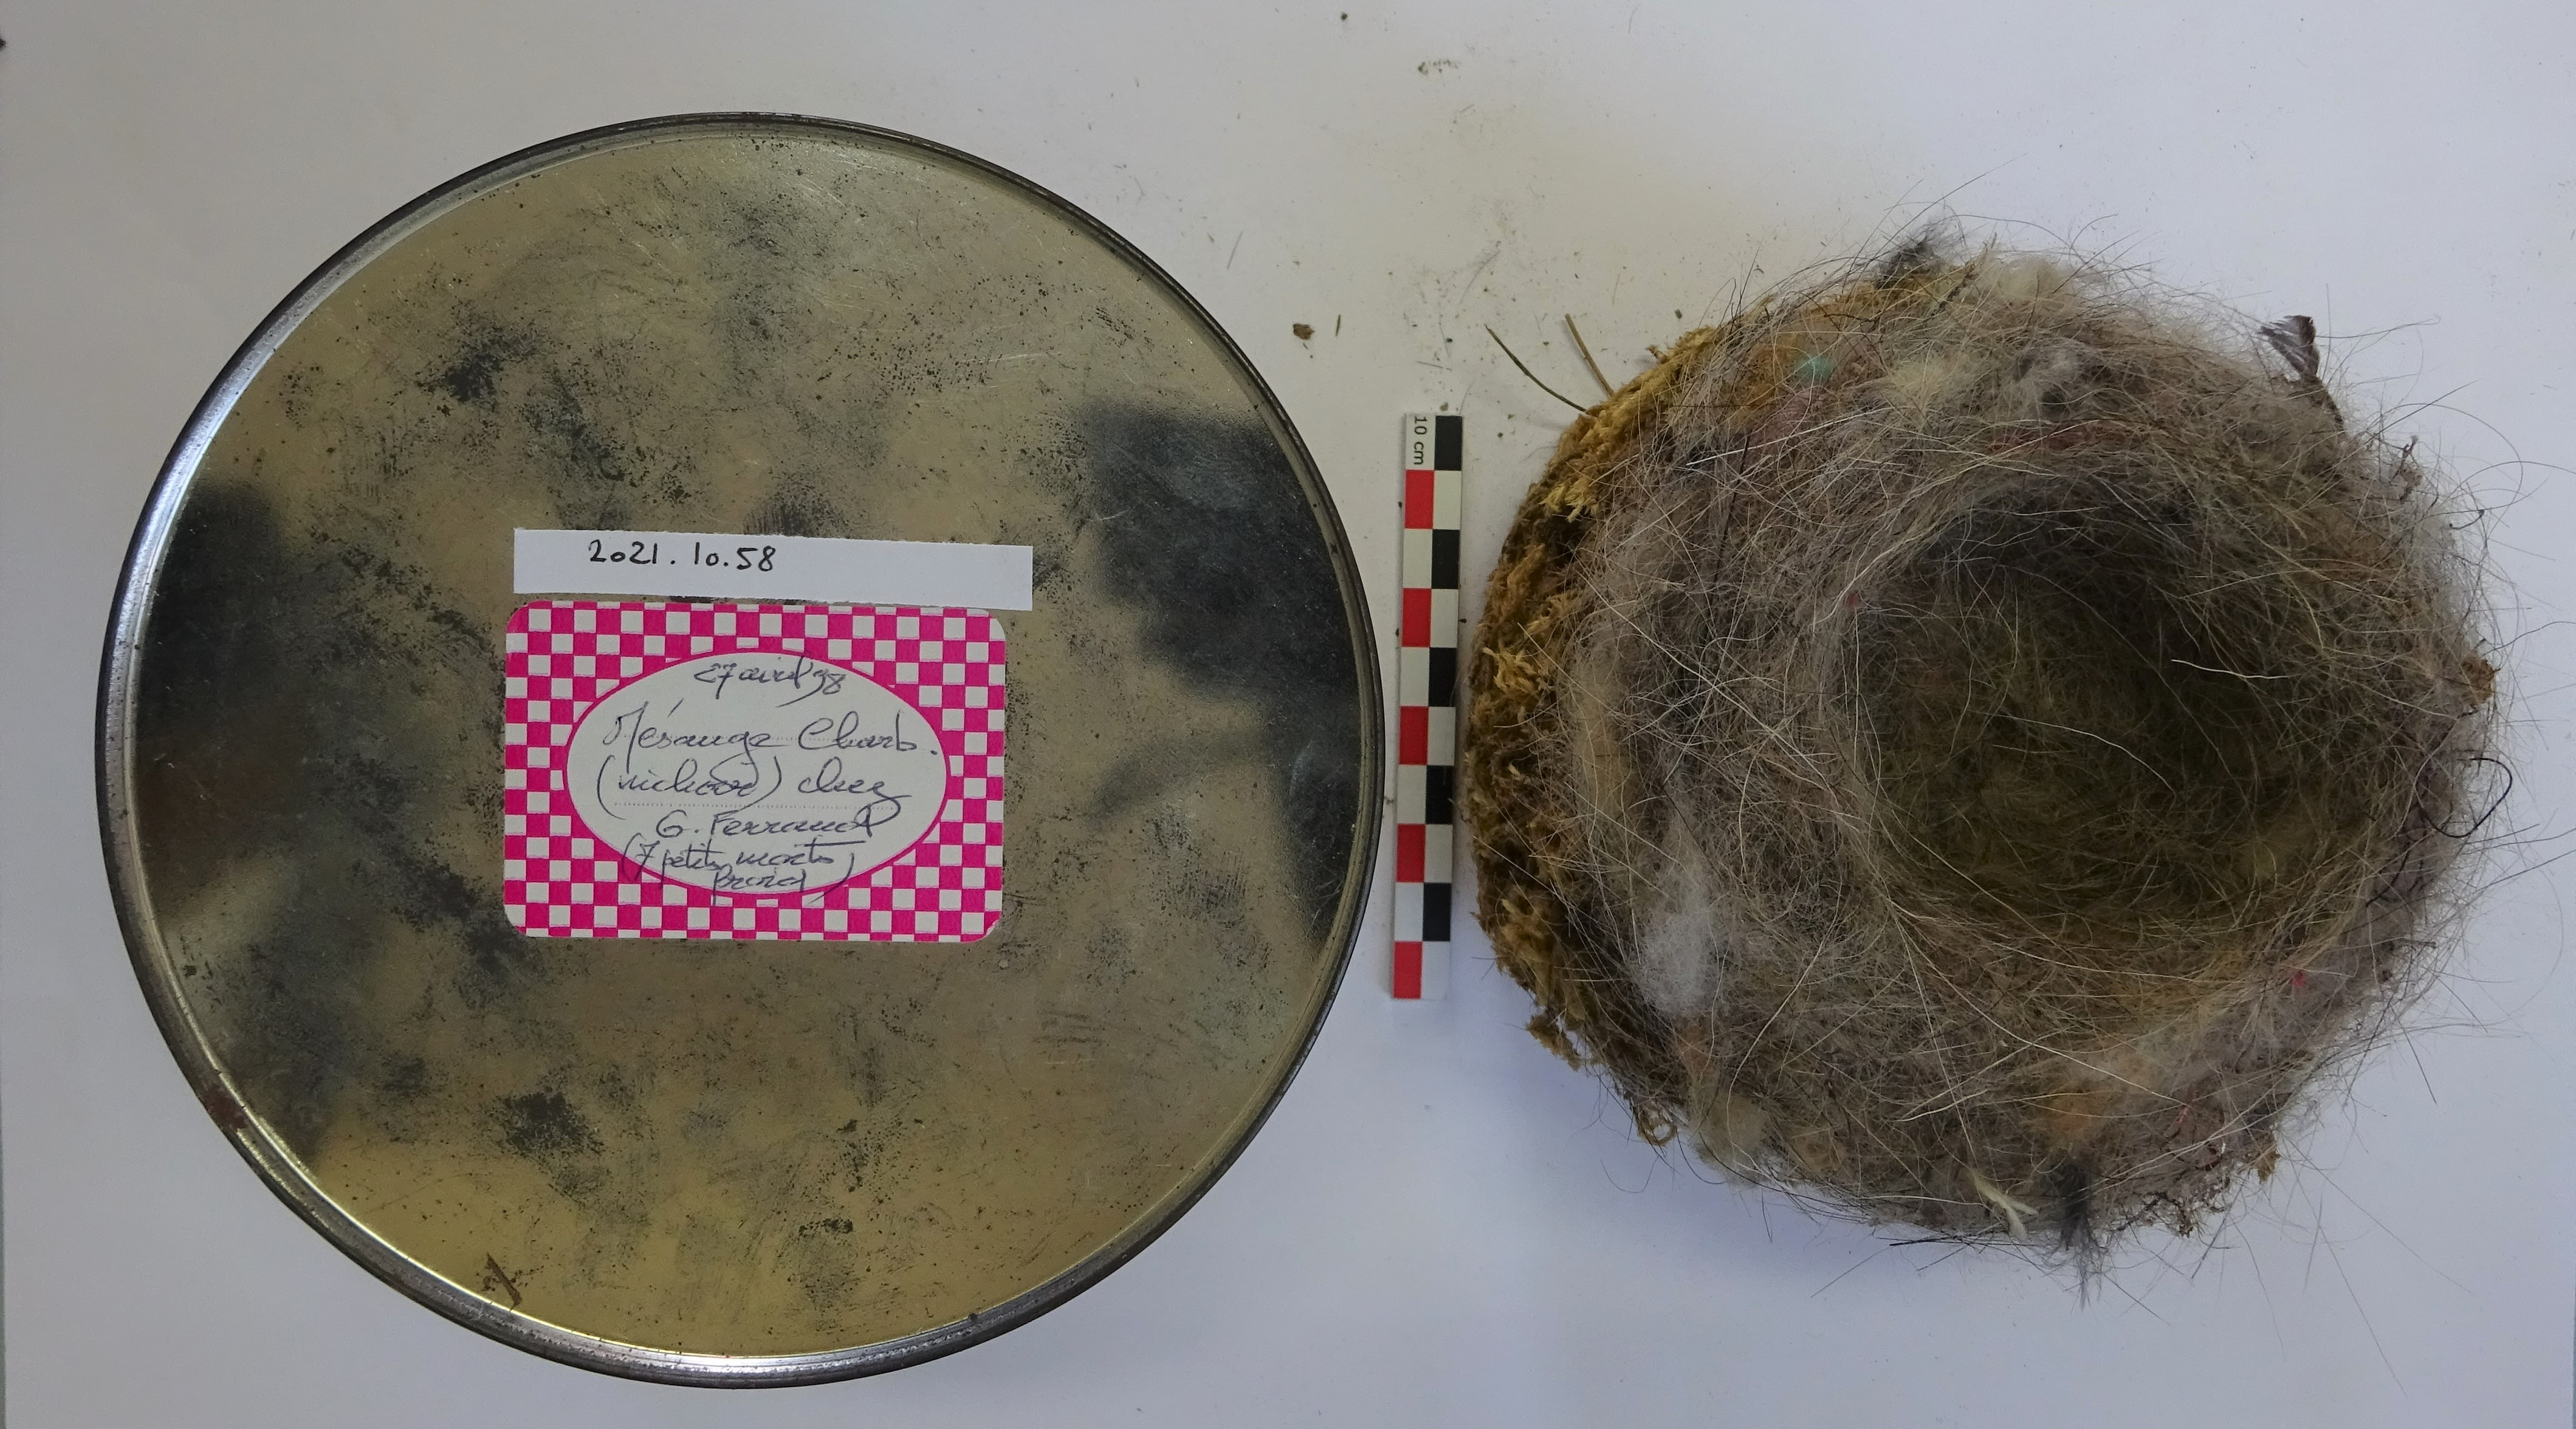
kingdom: Animalia
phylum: Chordata
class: Aves
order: Passeriformes
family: Paridae
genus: Parus
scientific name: Parus major
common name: Great tit
